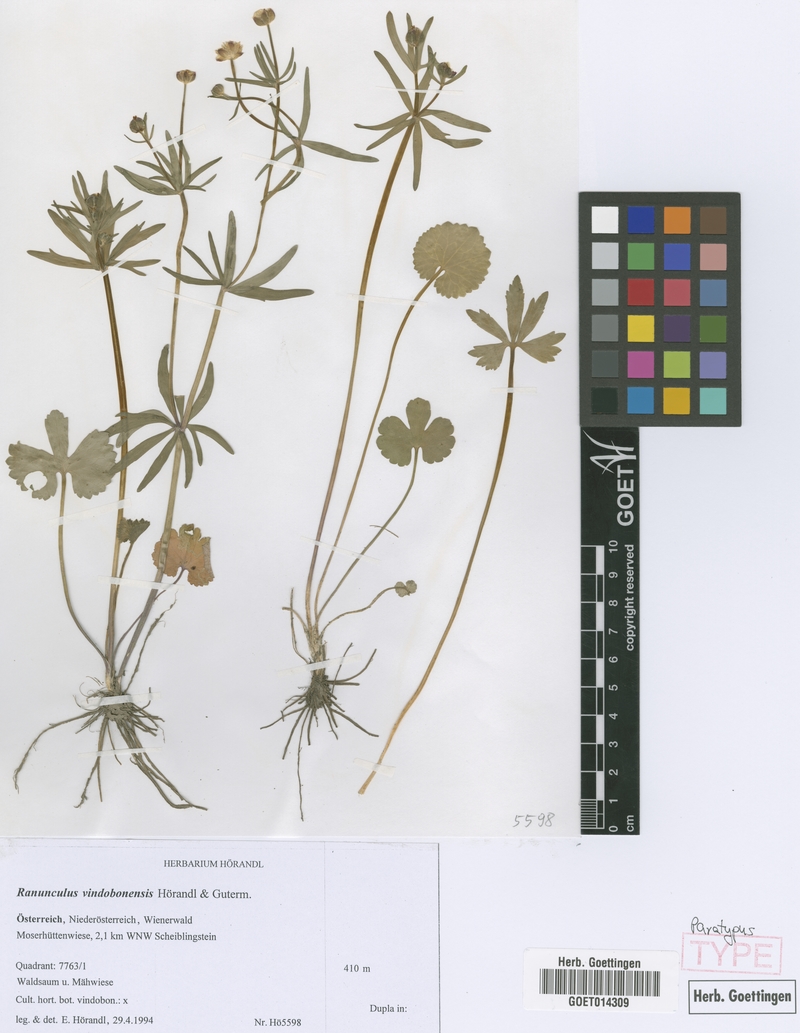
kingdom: Plantae
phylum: Tracheophyta
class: Magnoliopsida
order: Ranunculales
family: Ranunculaceae
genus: Ranunculus
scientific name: Ranunculus vindobonensis
